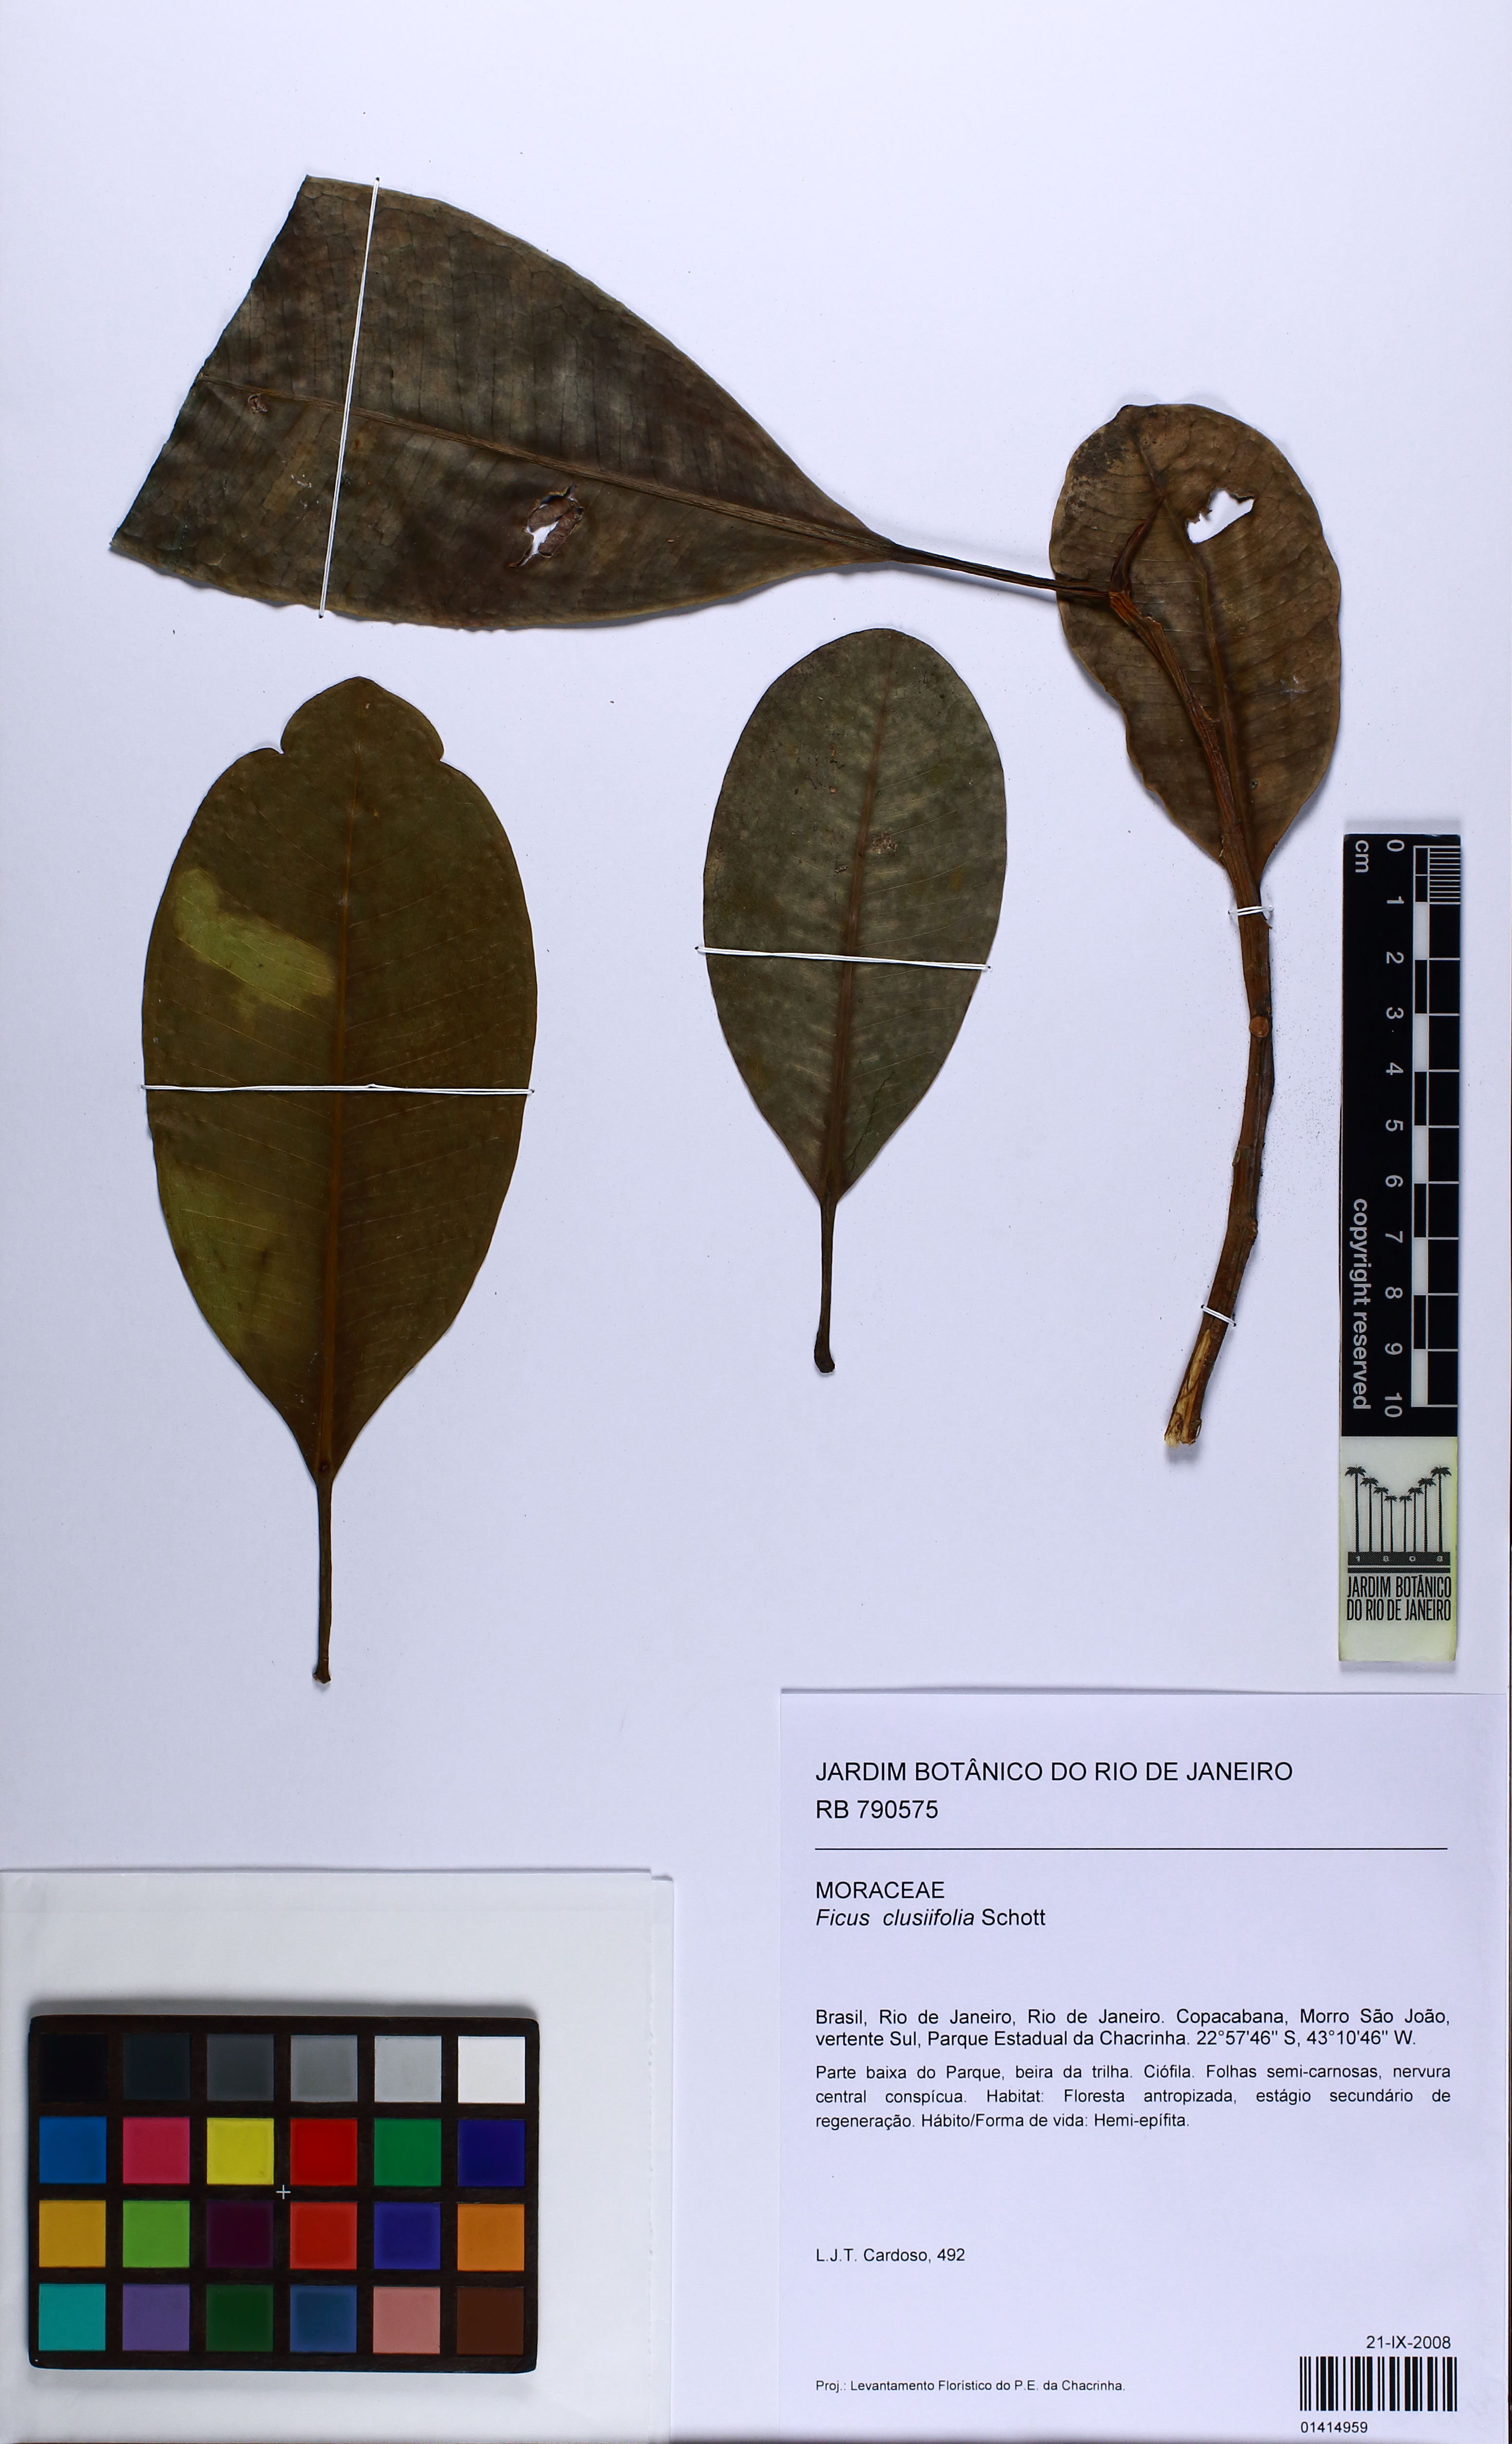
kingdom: Plantae
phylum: Tracheophyta
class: Magnoliopsida
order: Rosales
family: Moraceae
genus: Ficus
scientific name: Ficus americana
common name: Jamaican cherry fig
